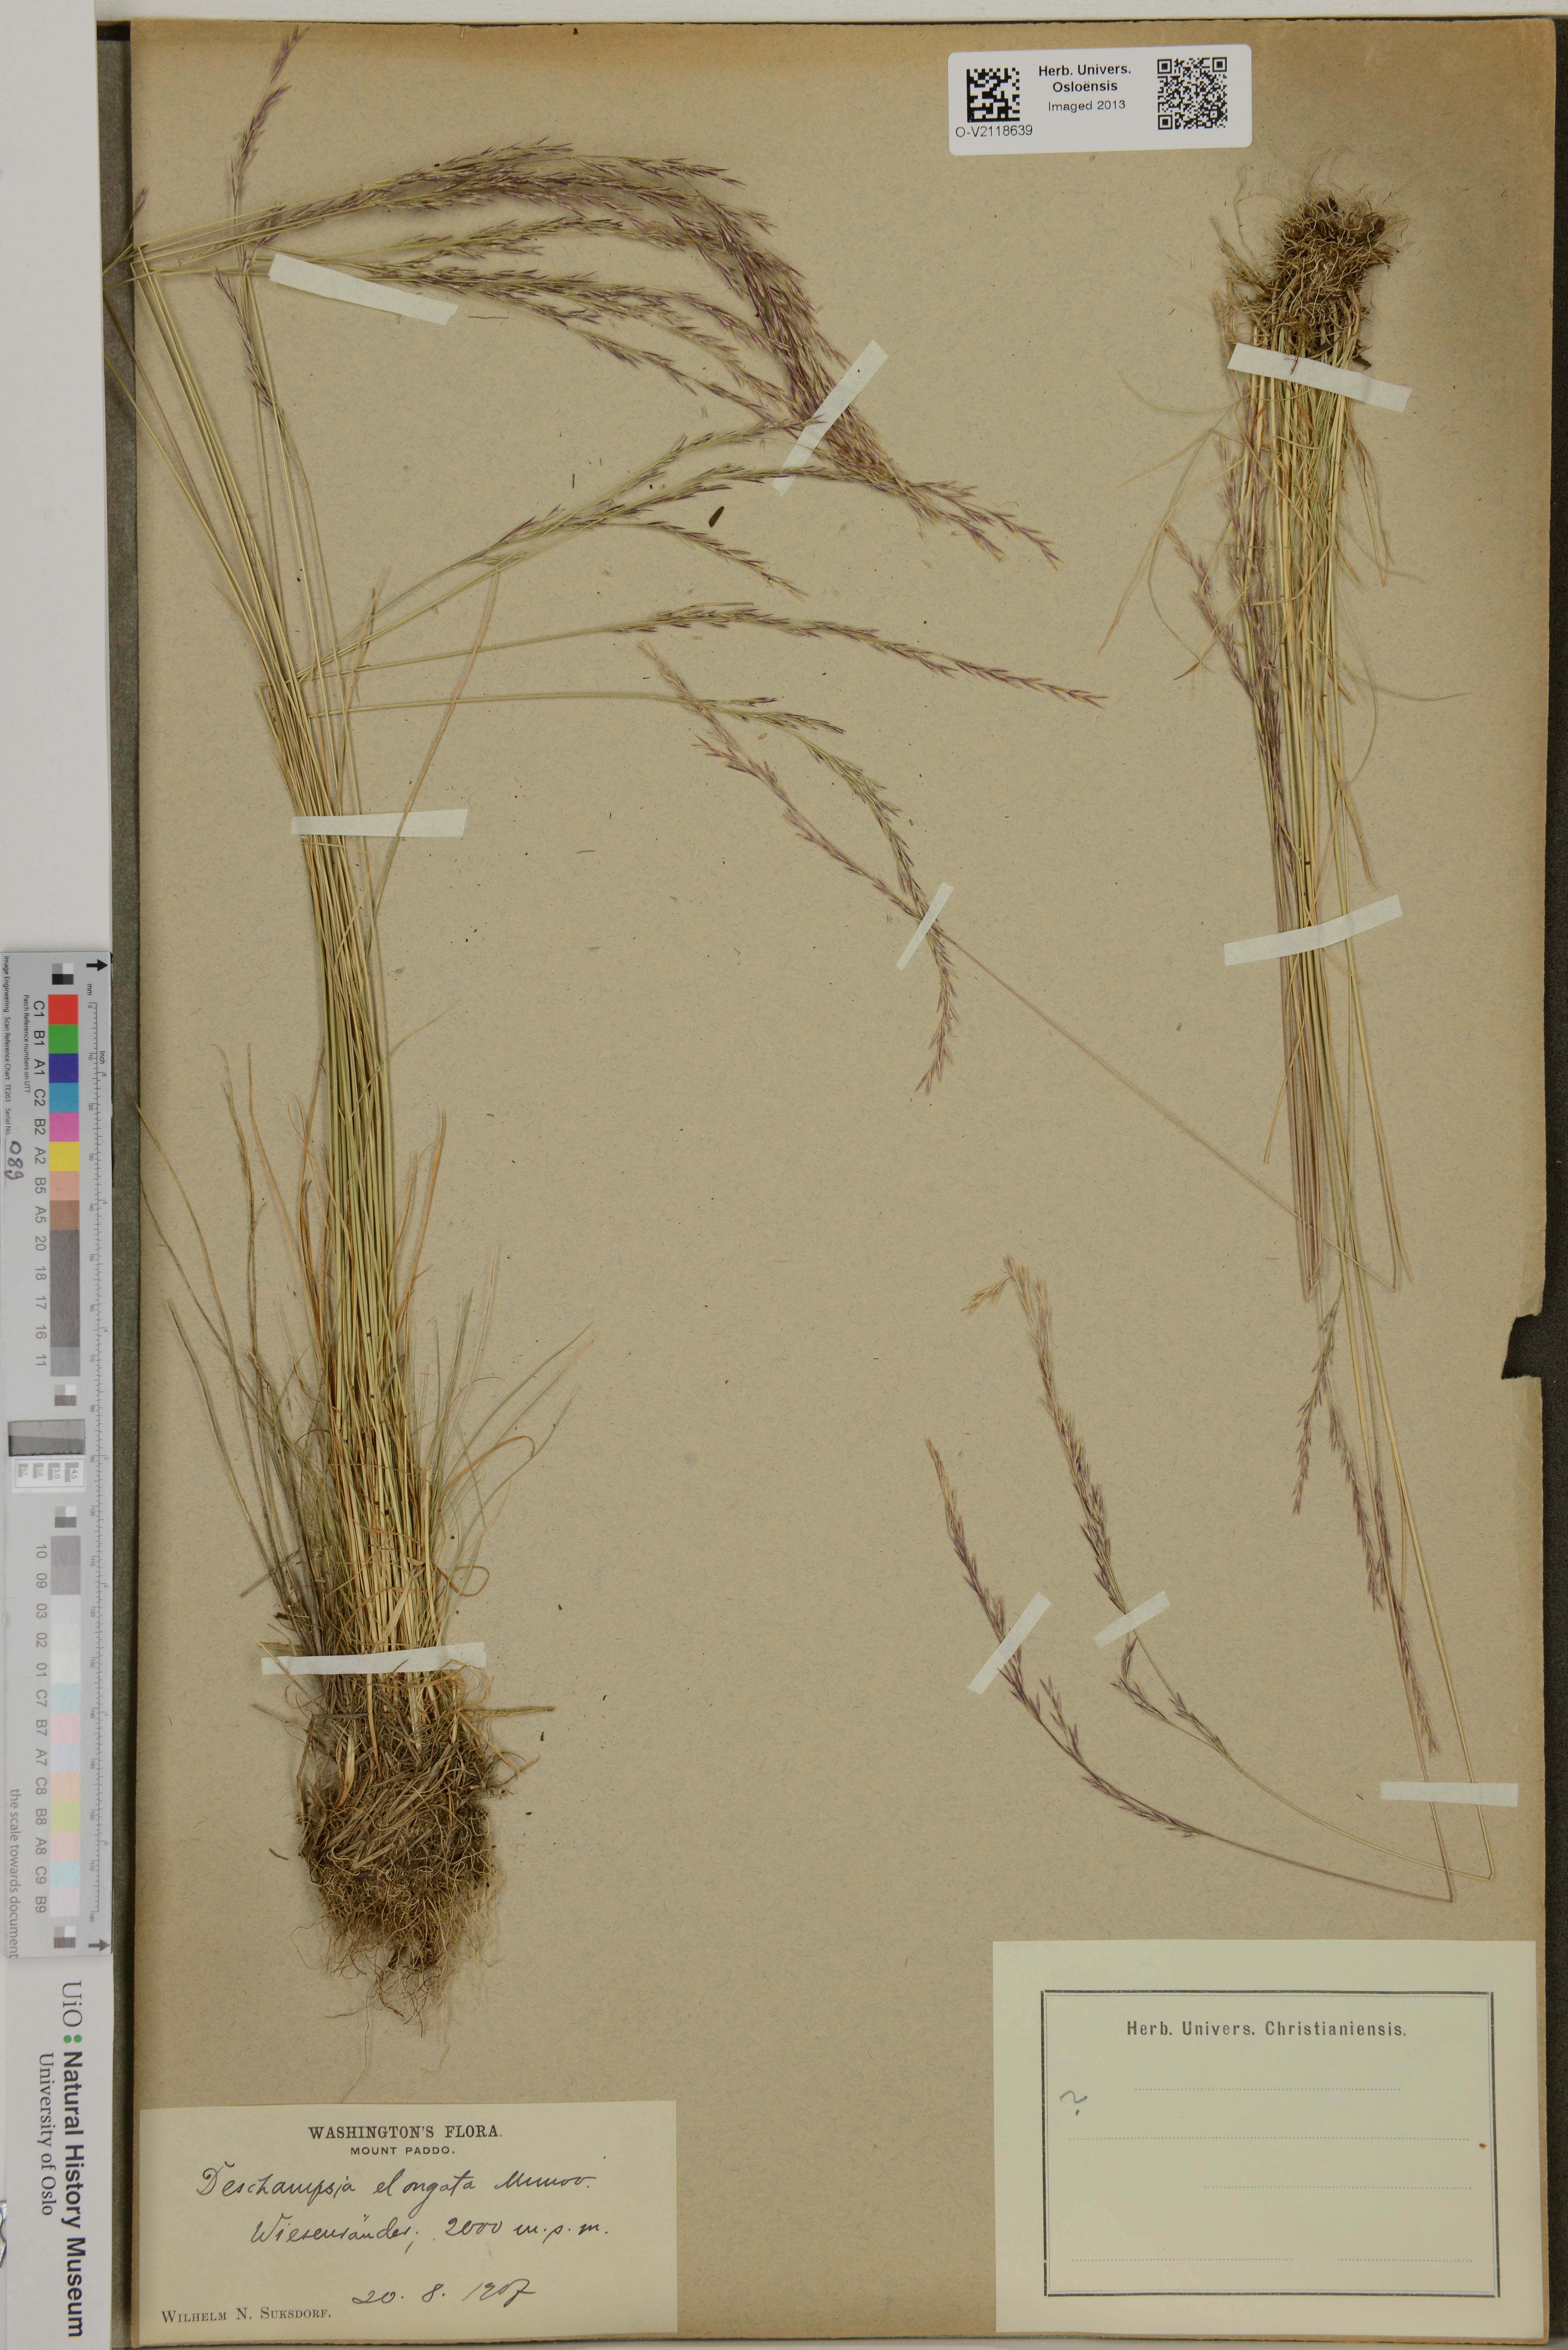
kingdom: Plantae
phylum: Tracheophyta
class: Liliopsida
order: Poales
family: Poaceae
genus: Deschampsia
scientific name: Deschampsia elongata
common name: Slender hairgrass
